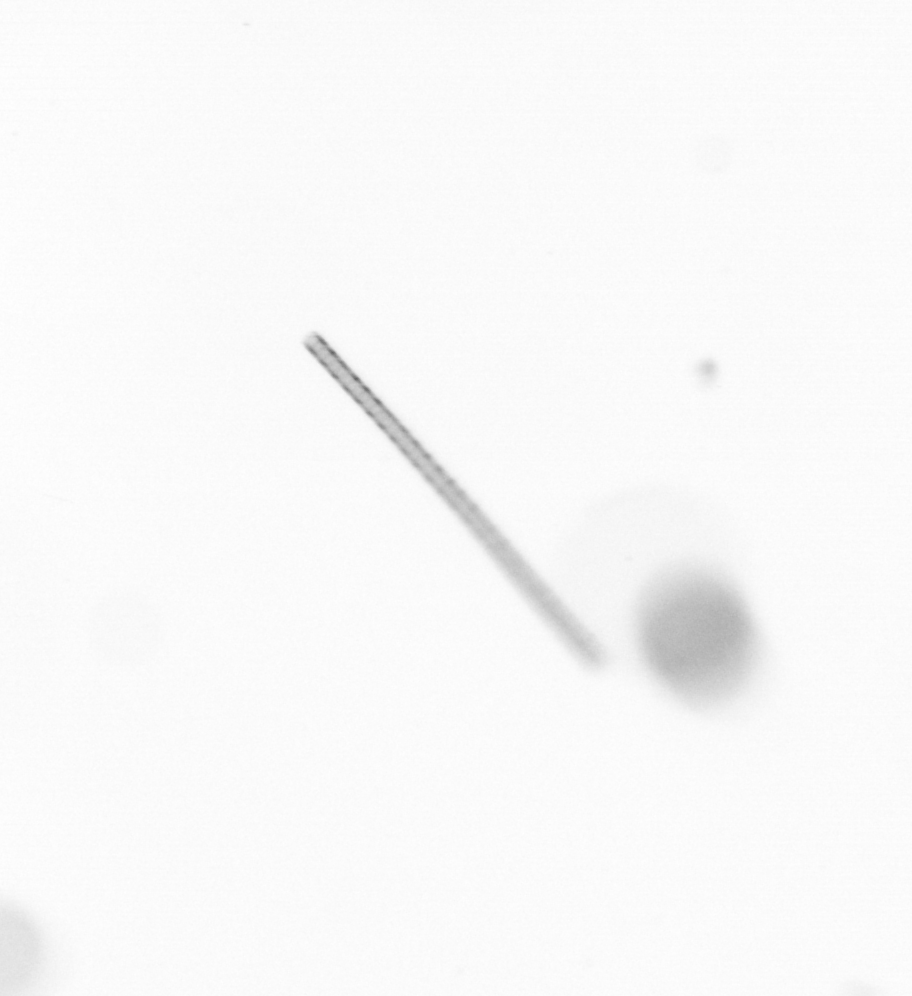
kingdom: Chromista
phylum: Ochrophyta
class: Bacillariophyceae
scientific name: Bacillariophyceae
